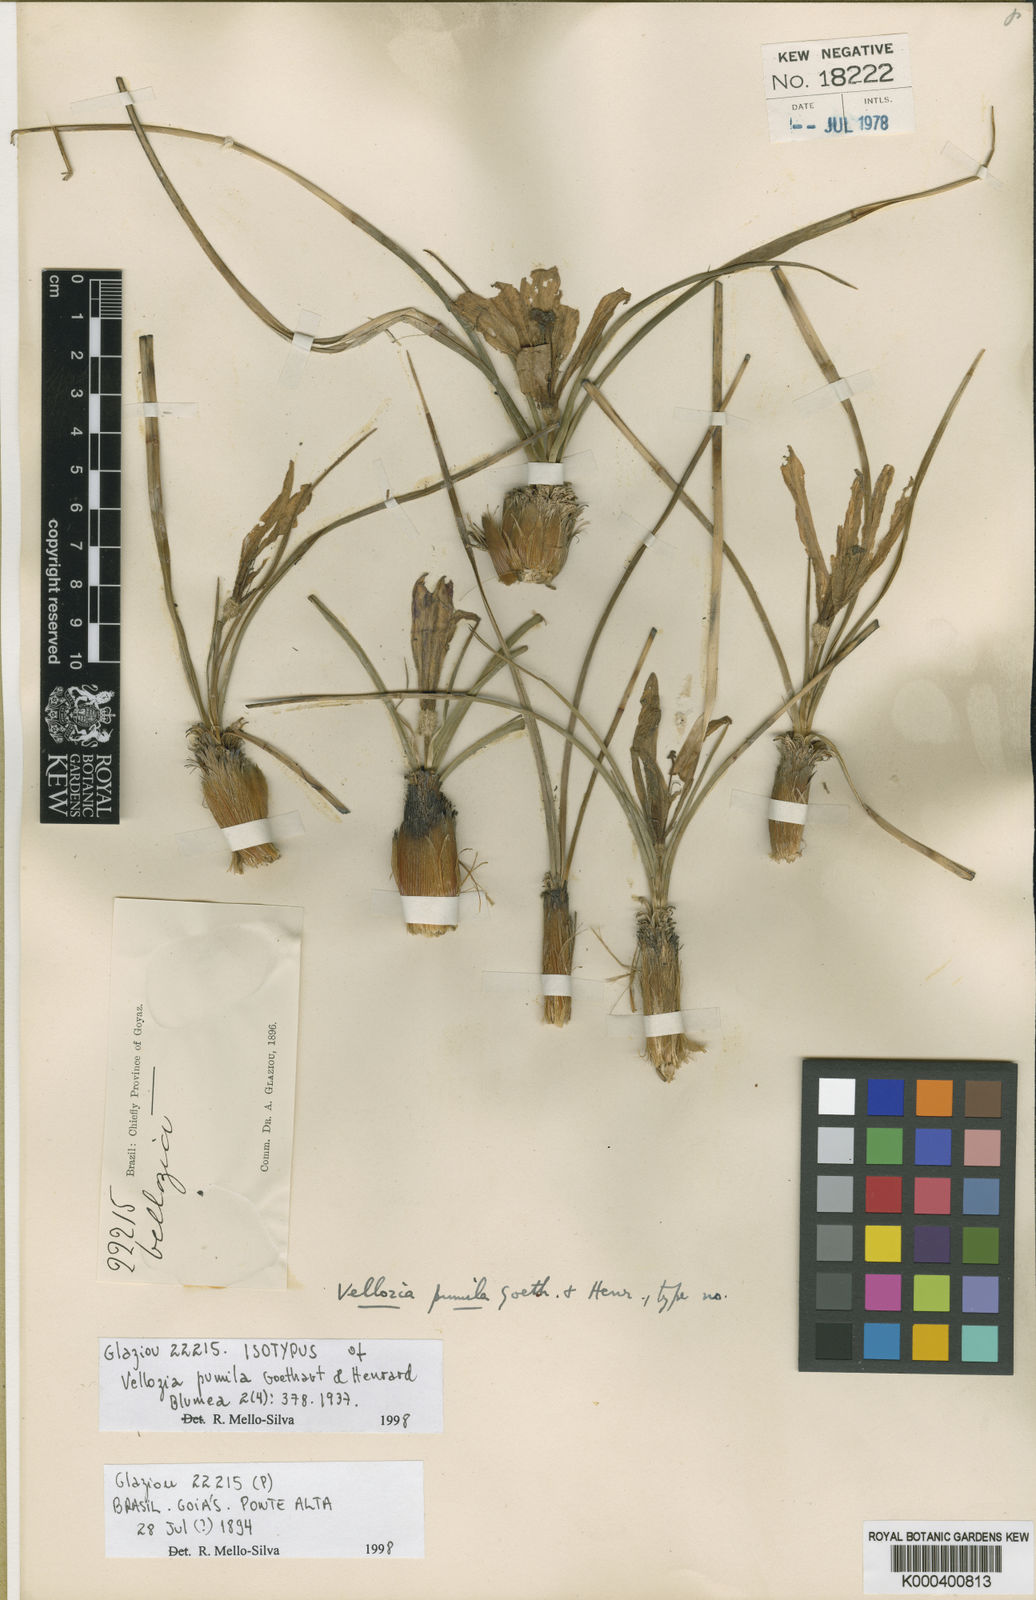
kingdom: Plantae
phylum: Tracheophyta
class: Liliopsida
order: Pandanales
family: Velloziaceae
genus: Vellozia
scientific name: Vellozia pumila
